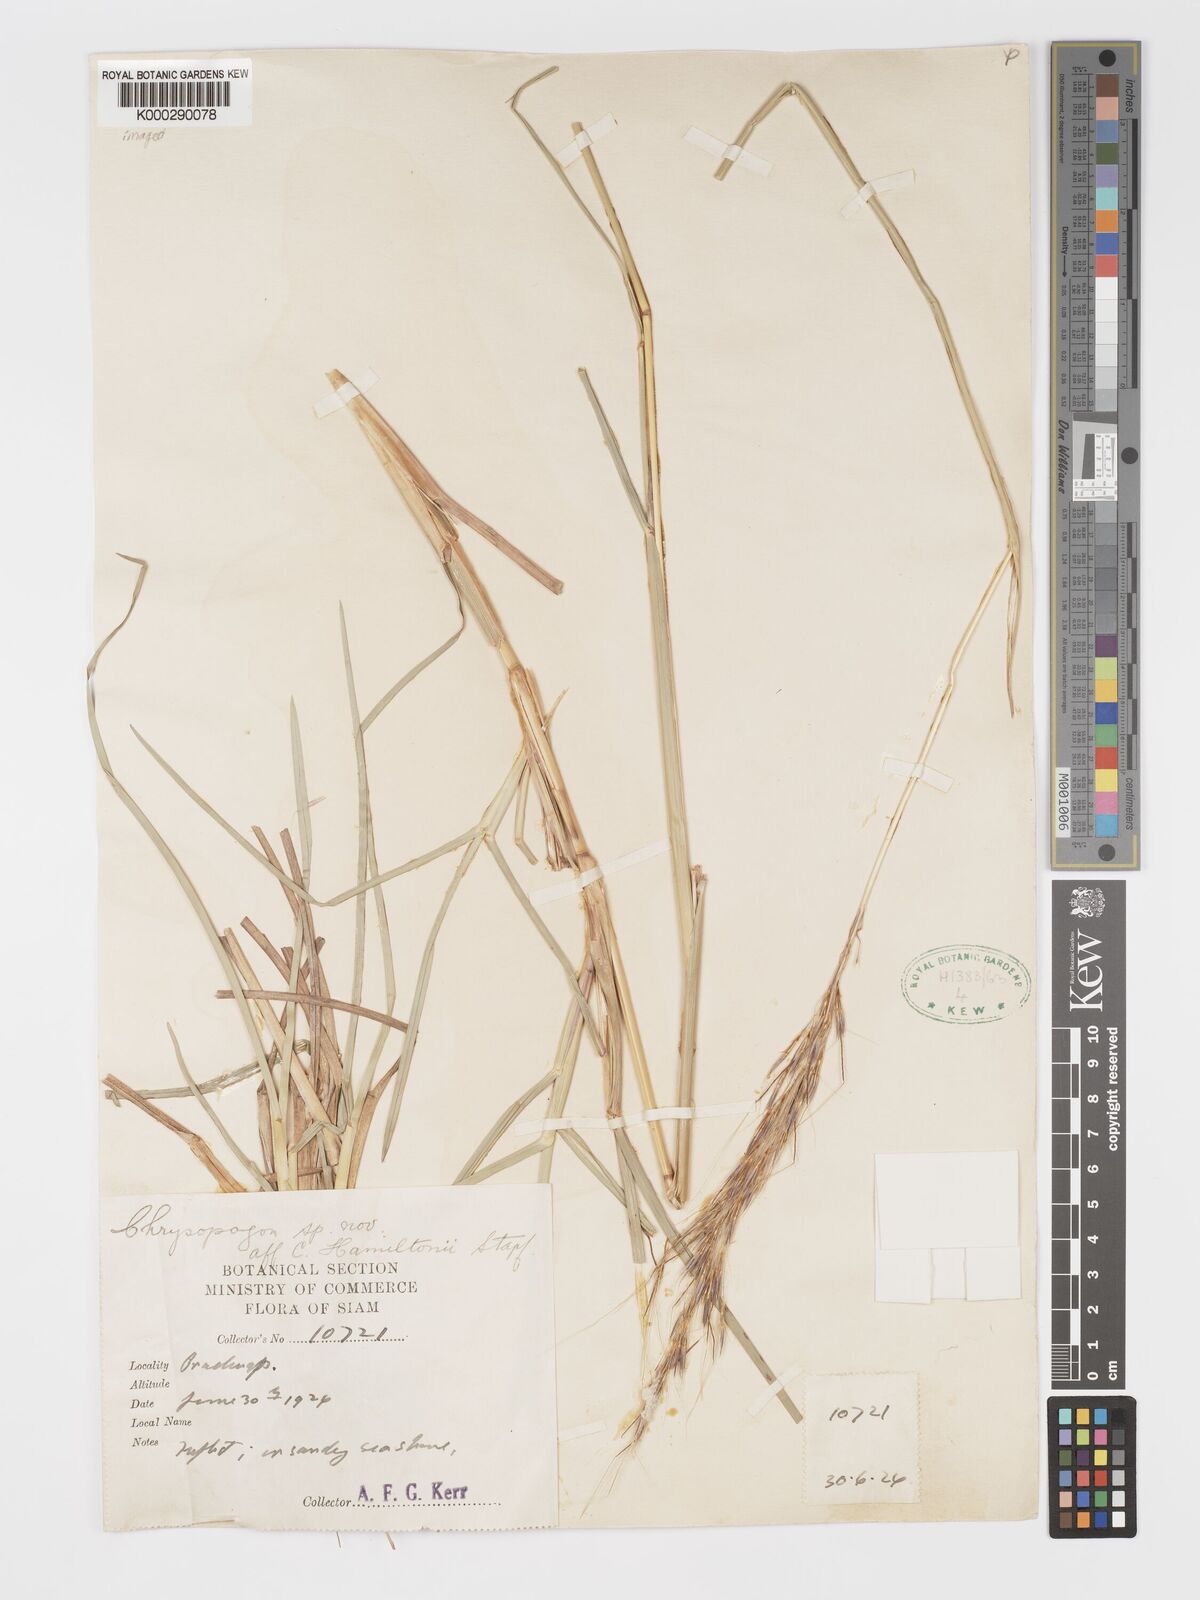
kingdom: Plantae
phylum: Tracheophyta
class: Liliopsida
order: Poales
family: Poaceae
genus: Chrysopogon
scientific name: Chrysopogon orientalis
